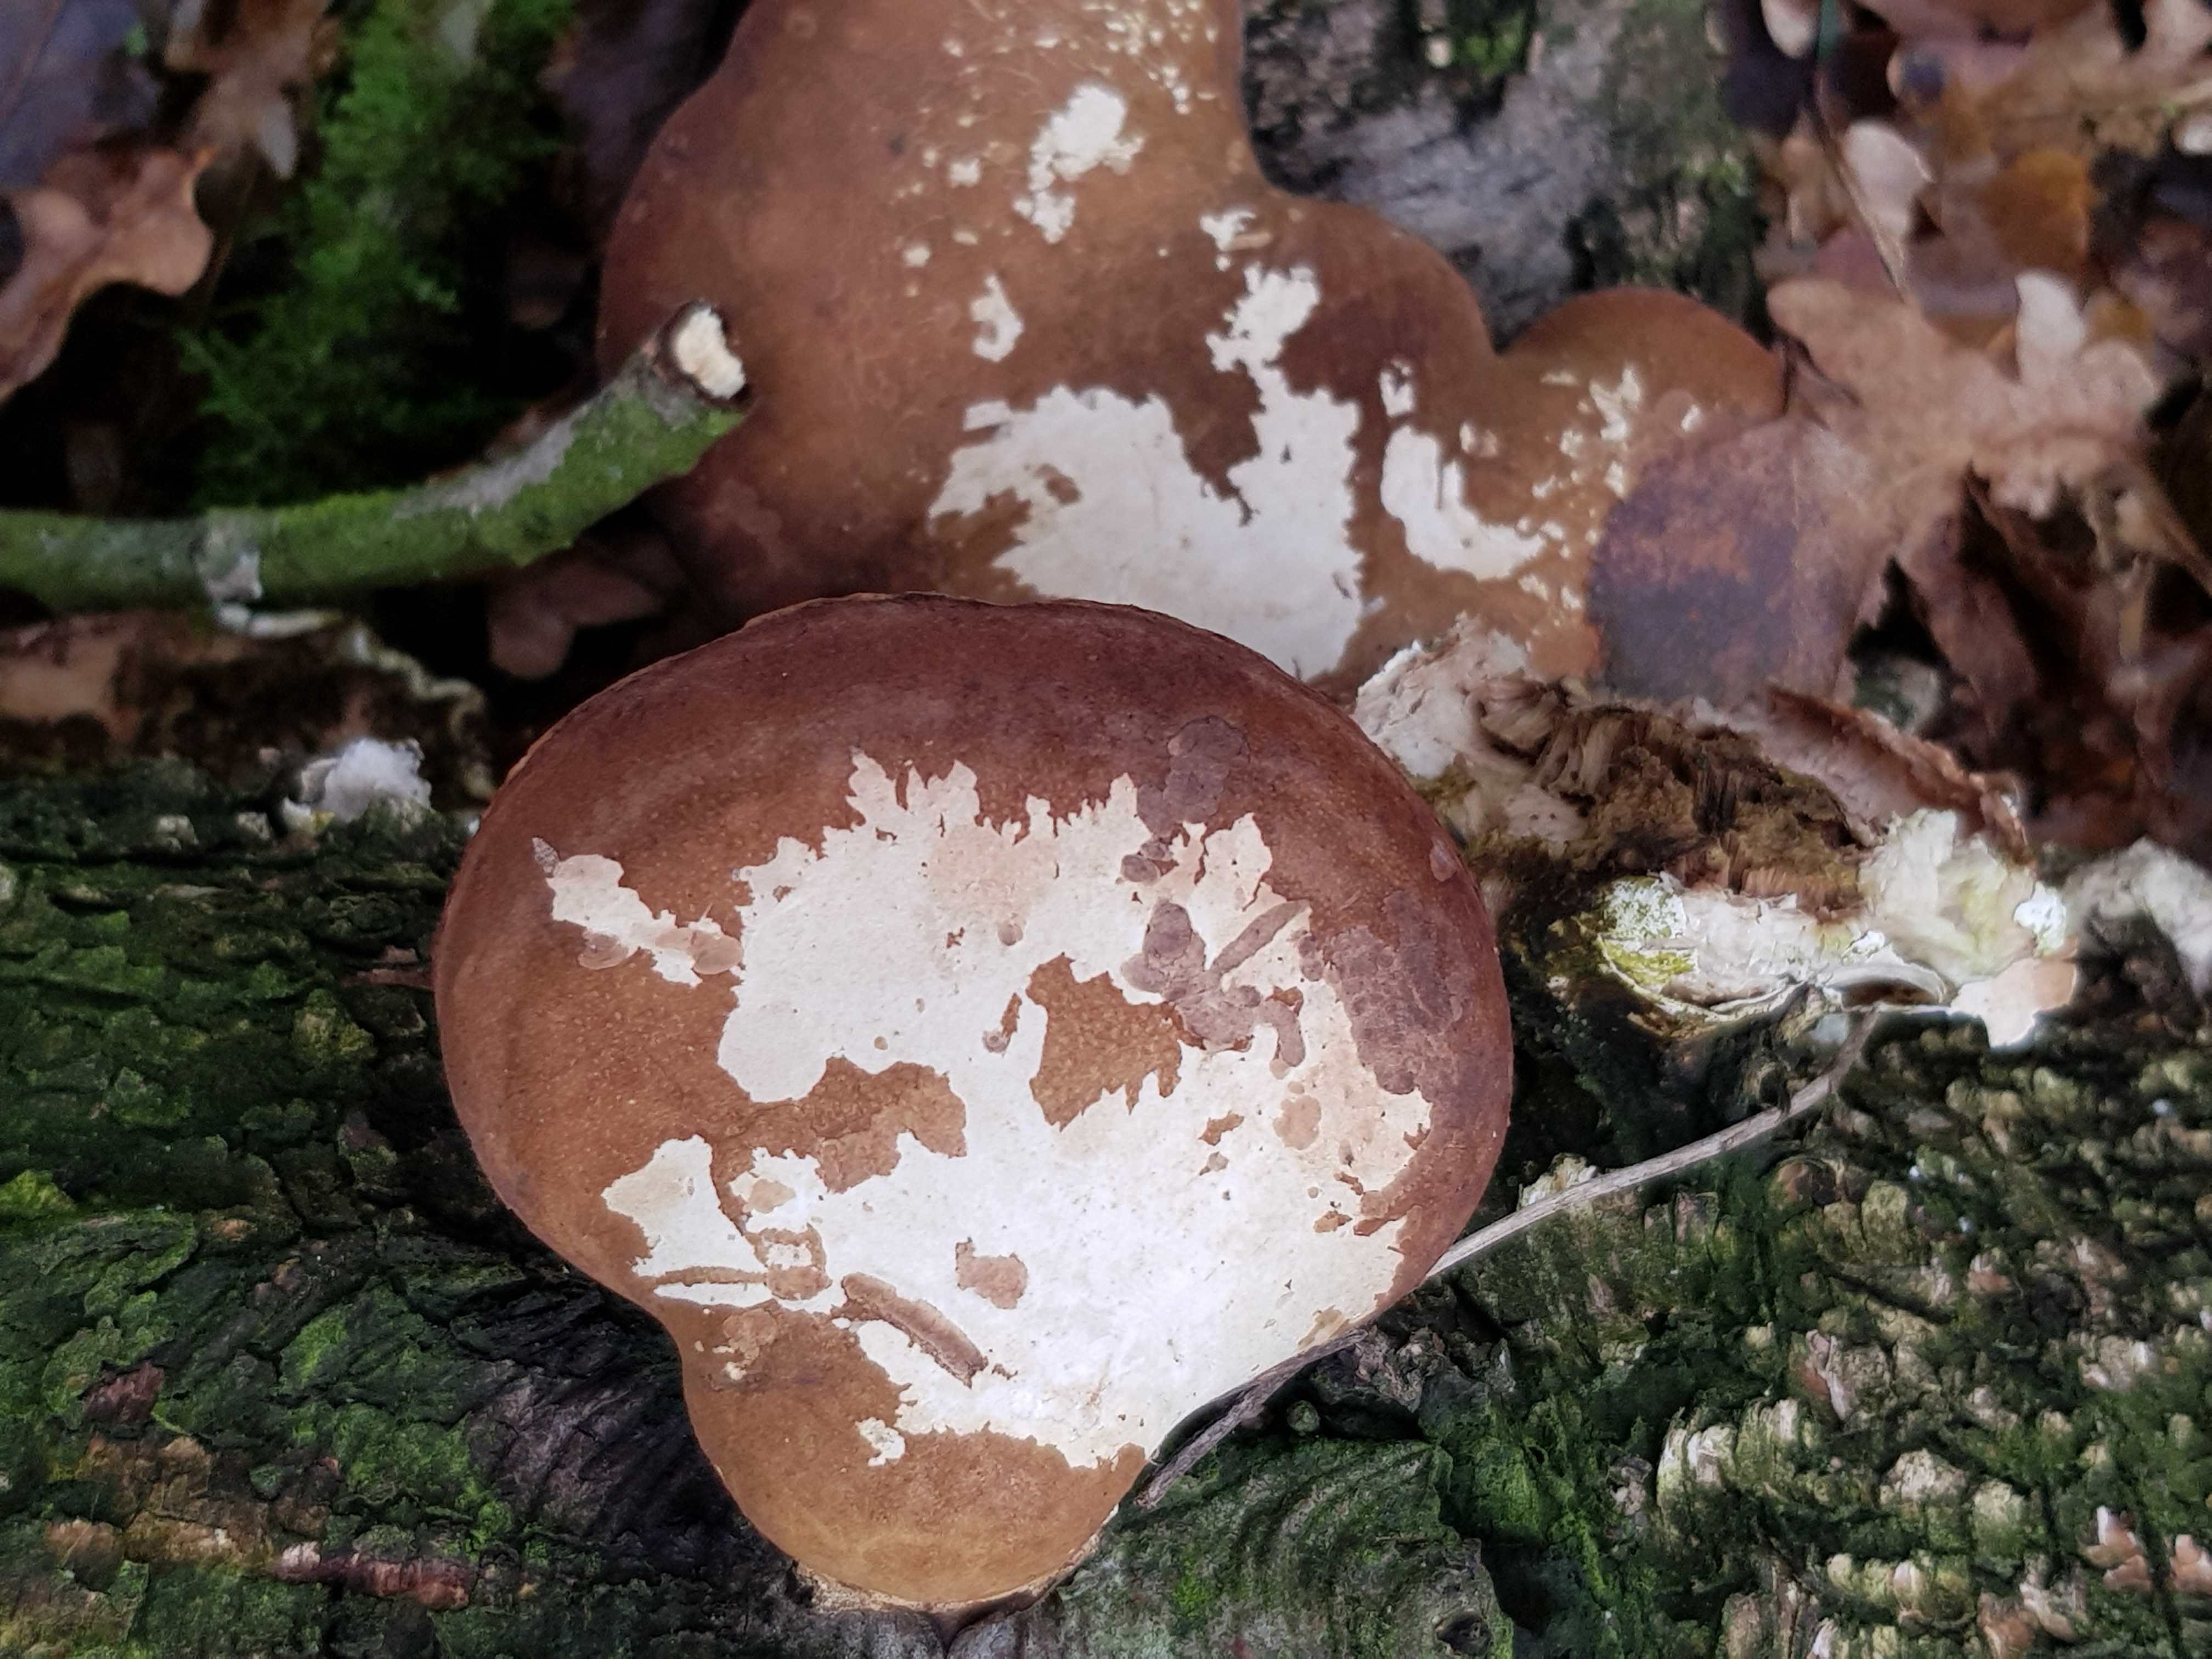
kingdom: Fungi
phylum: Basidiomycota
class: Agaricomycetes
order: Polyporales
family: Fomitopsidaceae
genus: Fomitopsis
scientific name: Fomitopsis betulina
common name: birkeporesvamp
